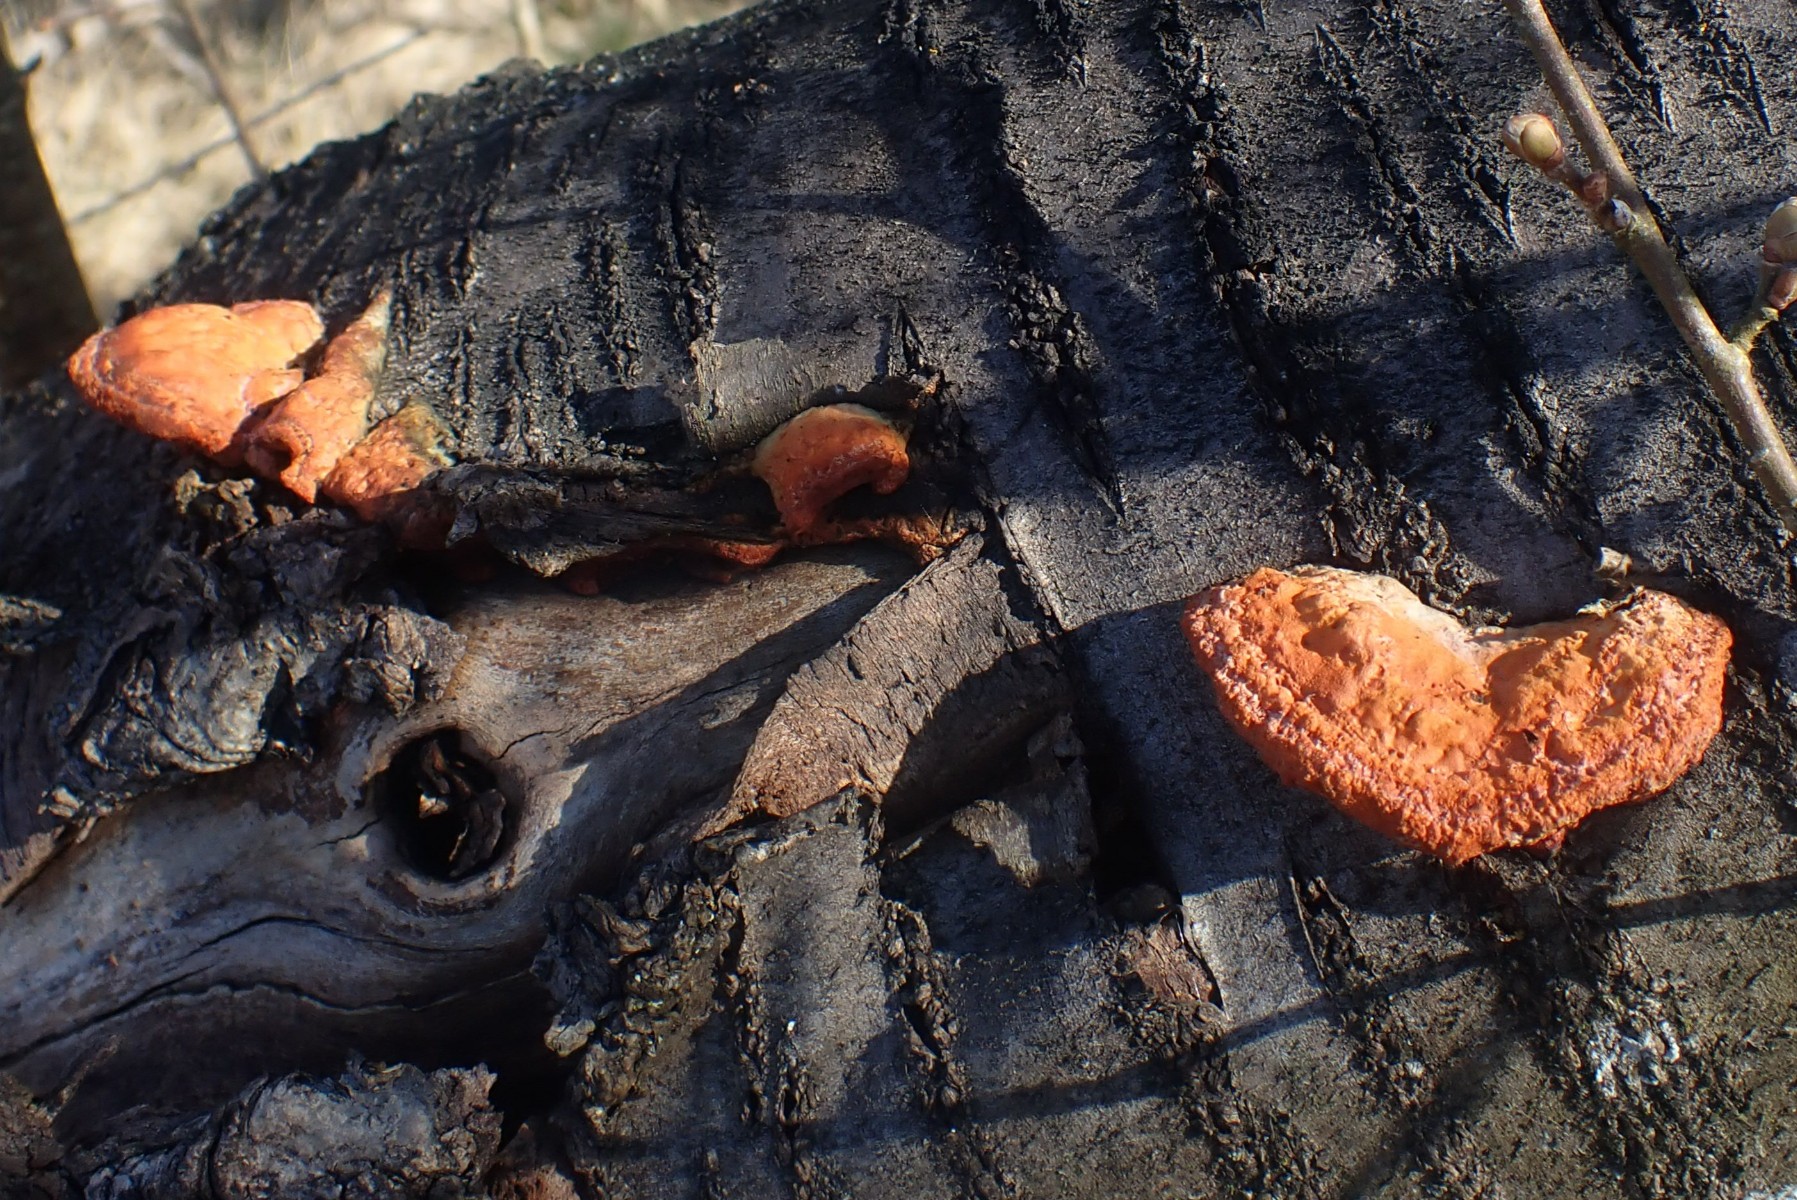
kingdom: Fungi
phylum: Basidiomycota
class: Agaricomycetes
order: Polyporales
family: Polyporaceae
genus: Trametes
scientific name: Trametes cinnabarina
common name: cinnoberporesvamp
